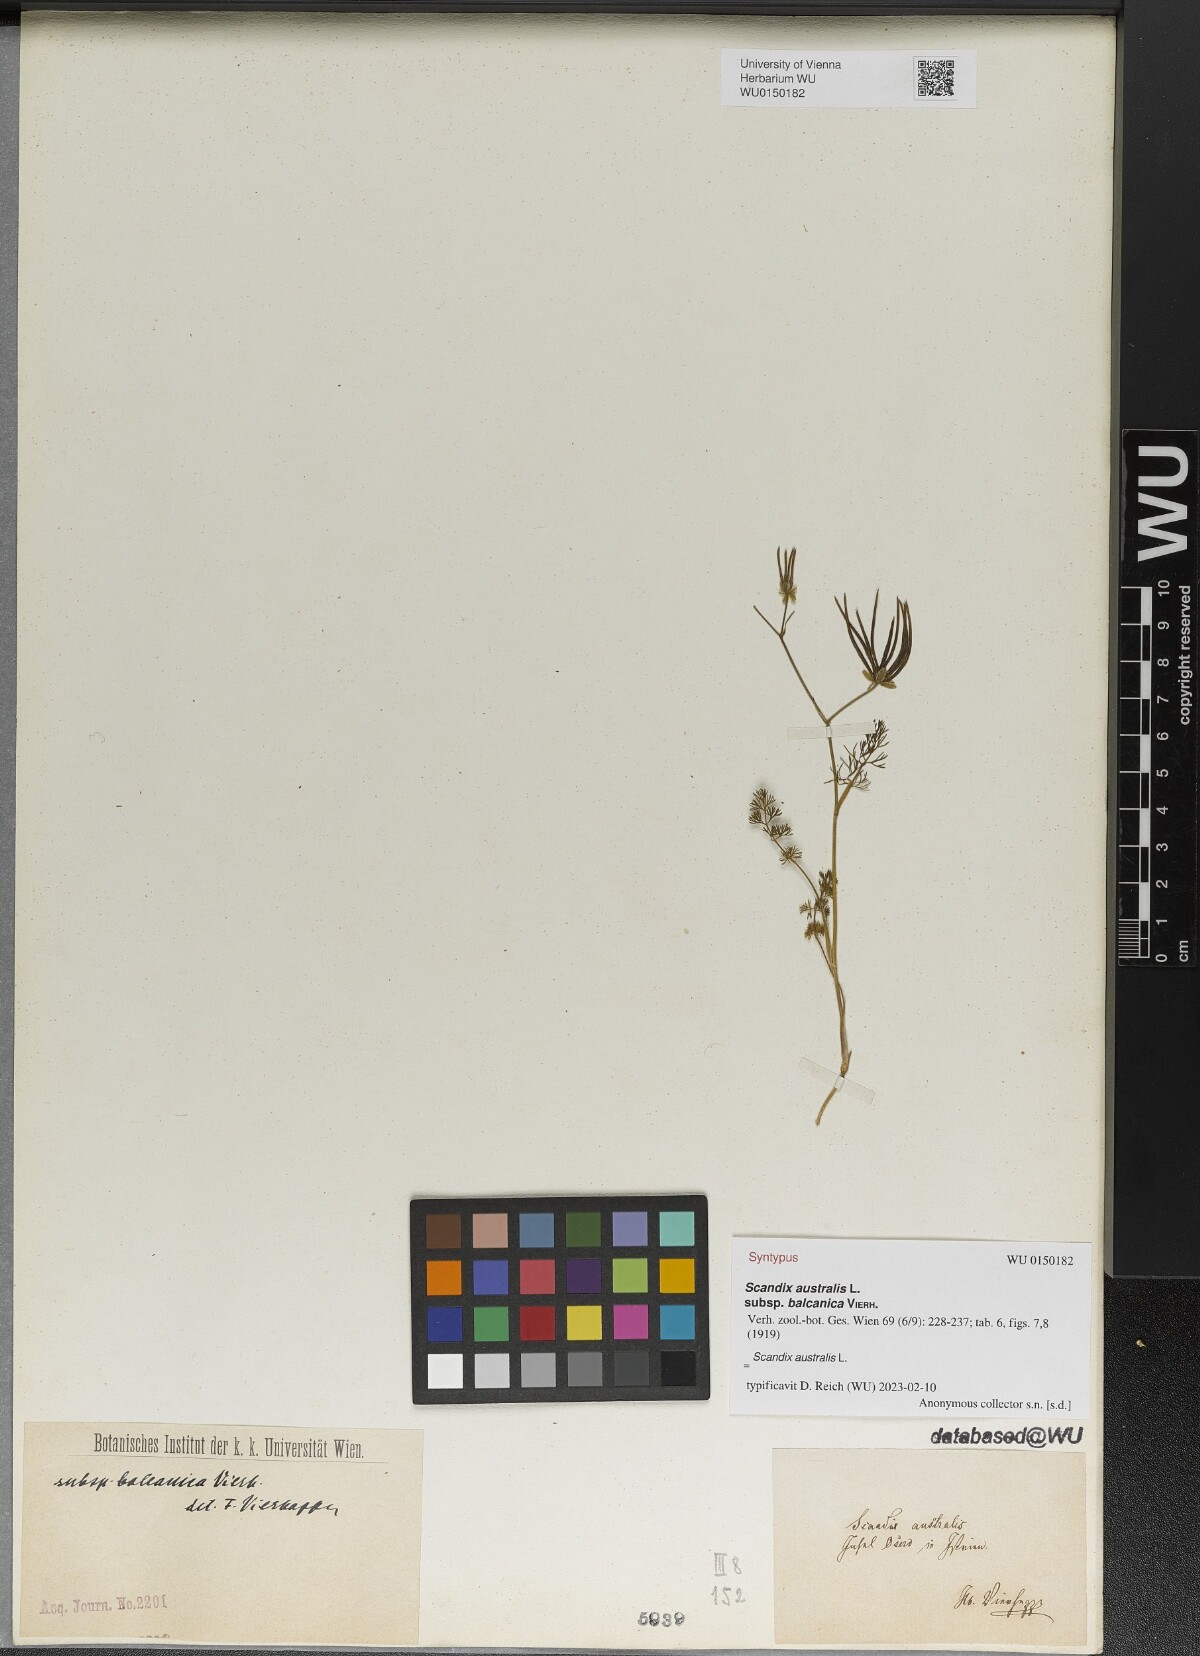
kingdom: Plantae
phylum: Tracheophyta
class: Magnoliopsida
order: Apiales
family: Apiaceae
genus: Scandix
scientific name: Scandix australis
